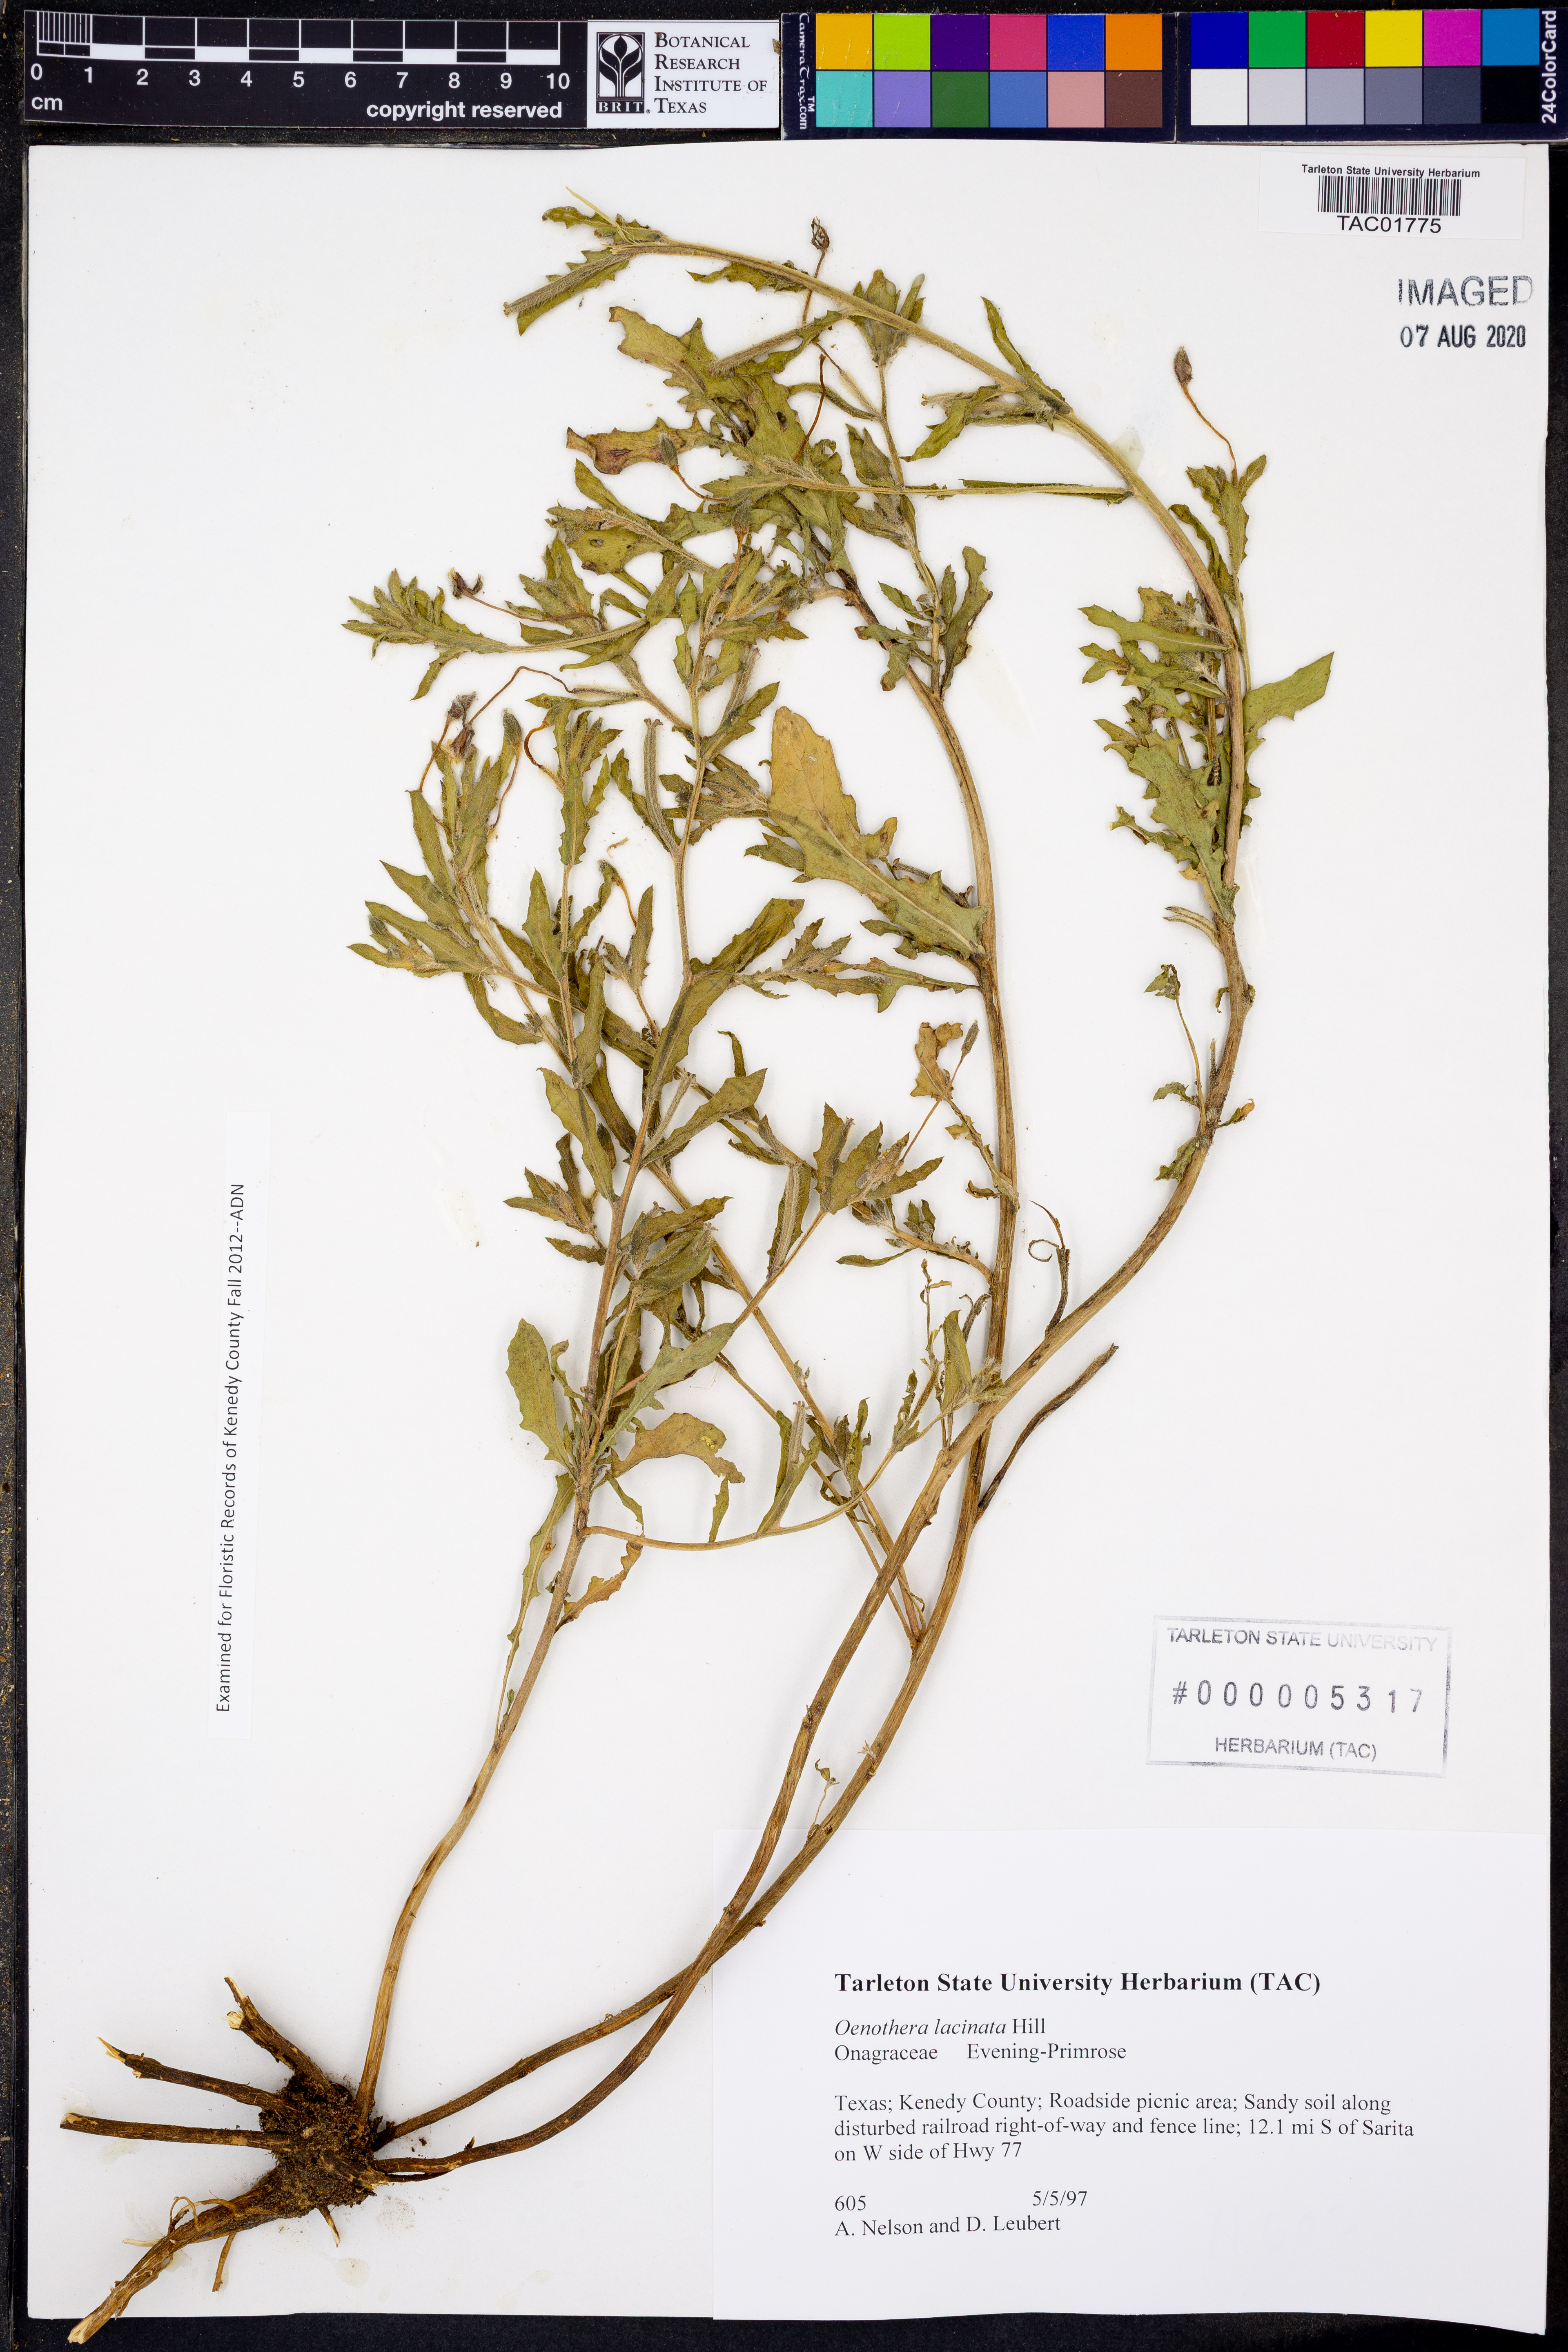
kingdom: Plantae
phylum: Tracheophyta
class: Magnoliopsida
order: Myrtales
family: Onagraceae
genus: Oenothera
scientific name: Oenothera laciniata
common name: Cut-leaved evening-primrose
